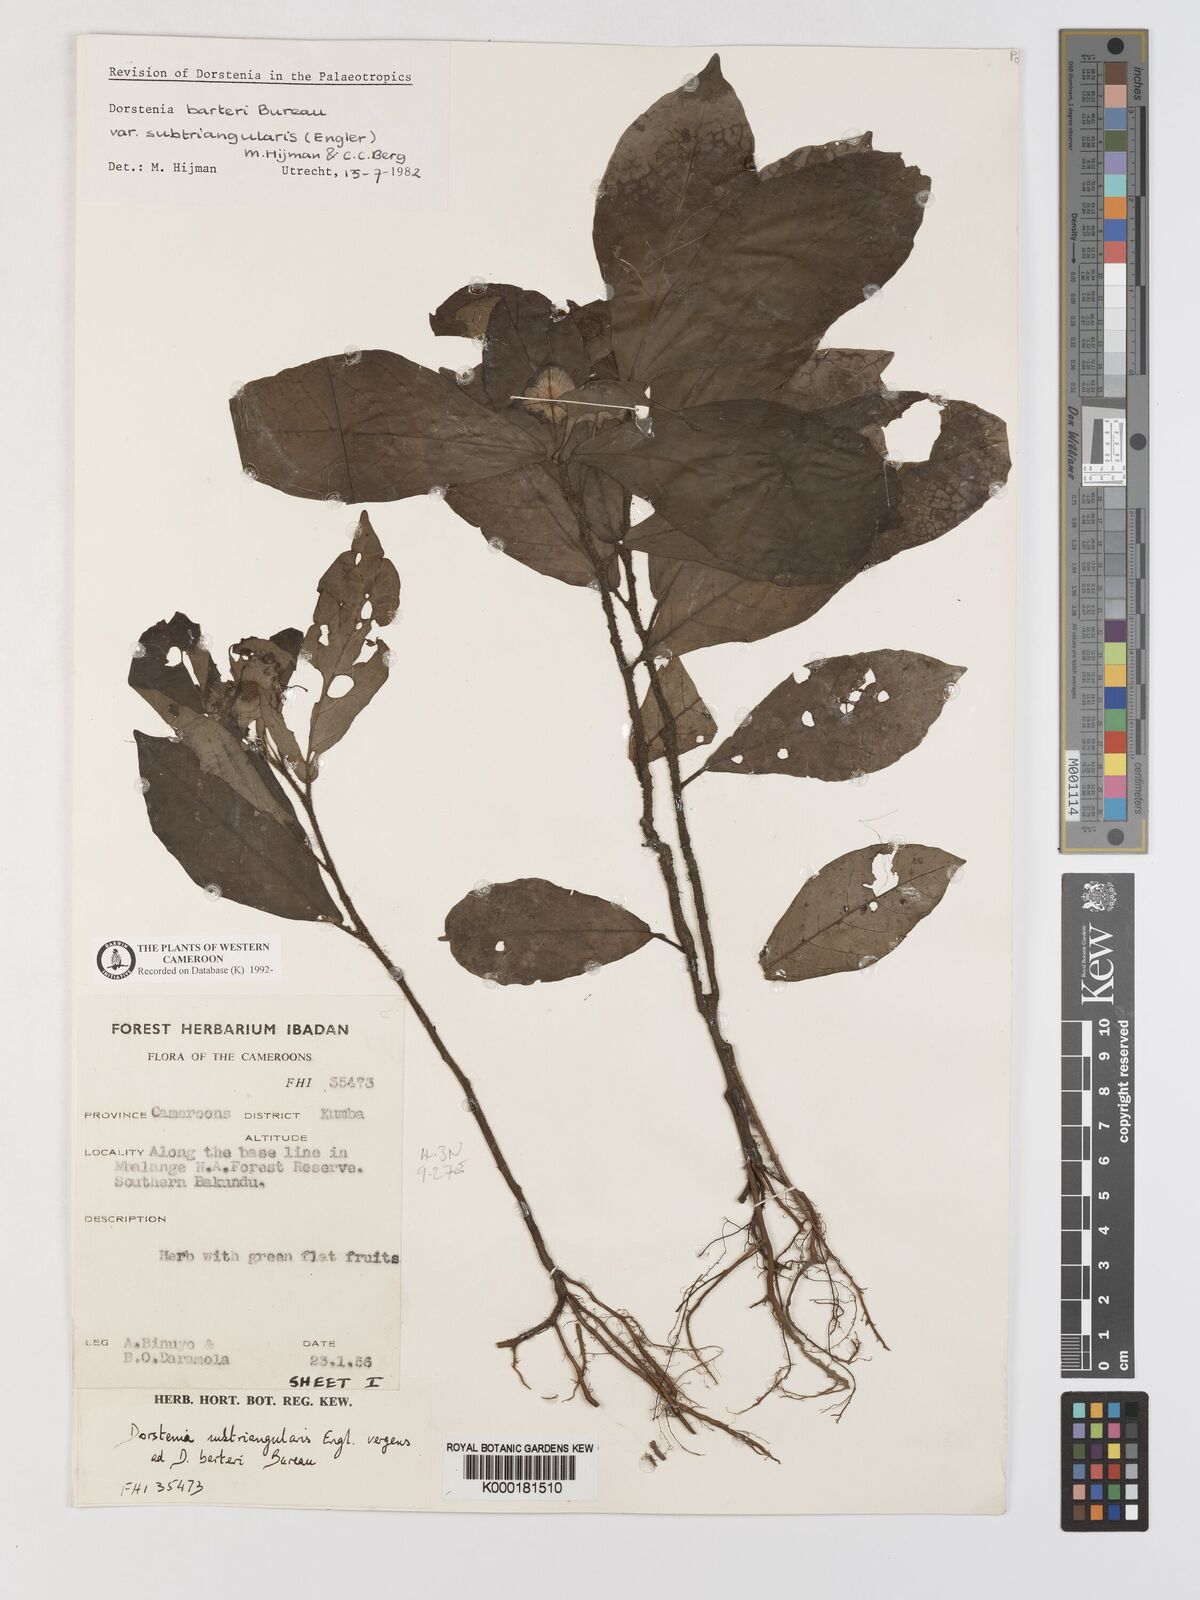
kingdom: Plantae
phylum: Tracheophyta
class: Magnoliopsida
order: Rosales
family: Moraceae
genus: Dorstenia
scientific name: Dorstenia barteri
